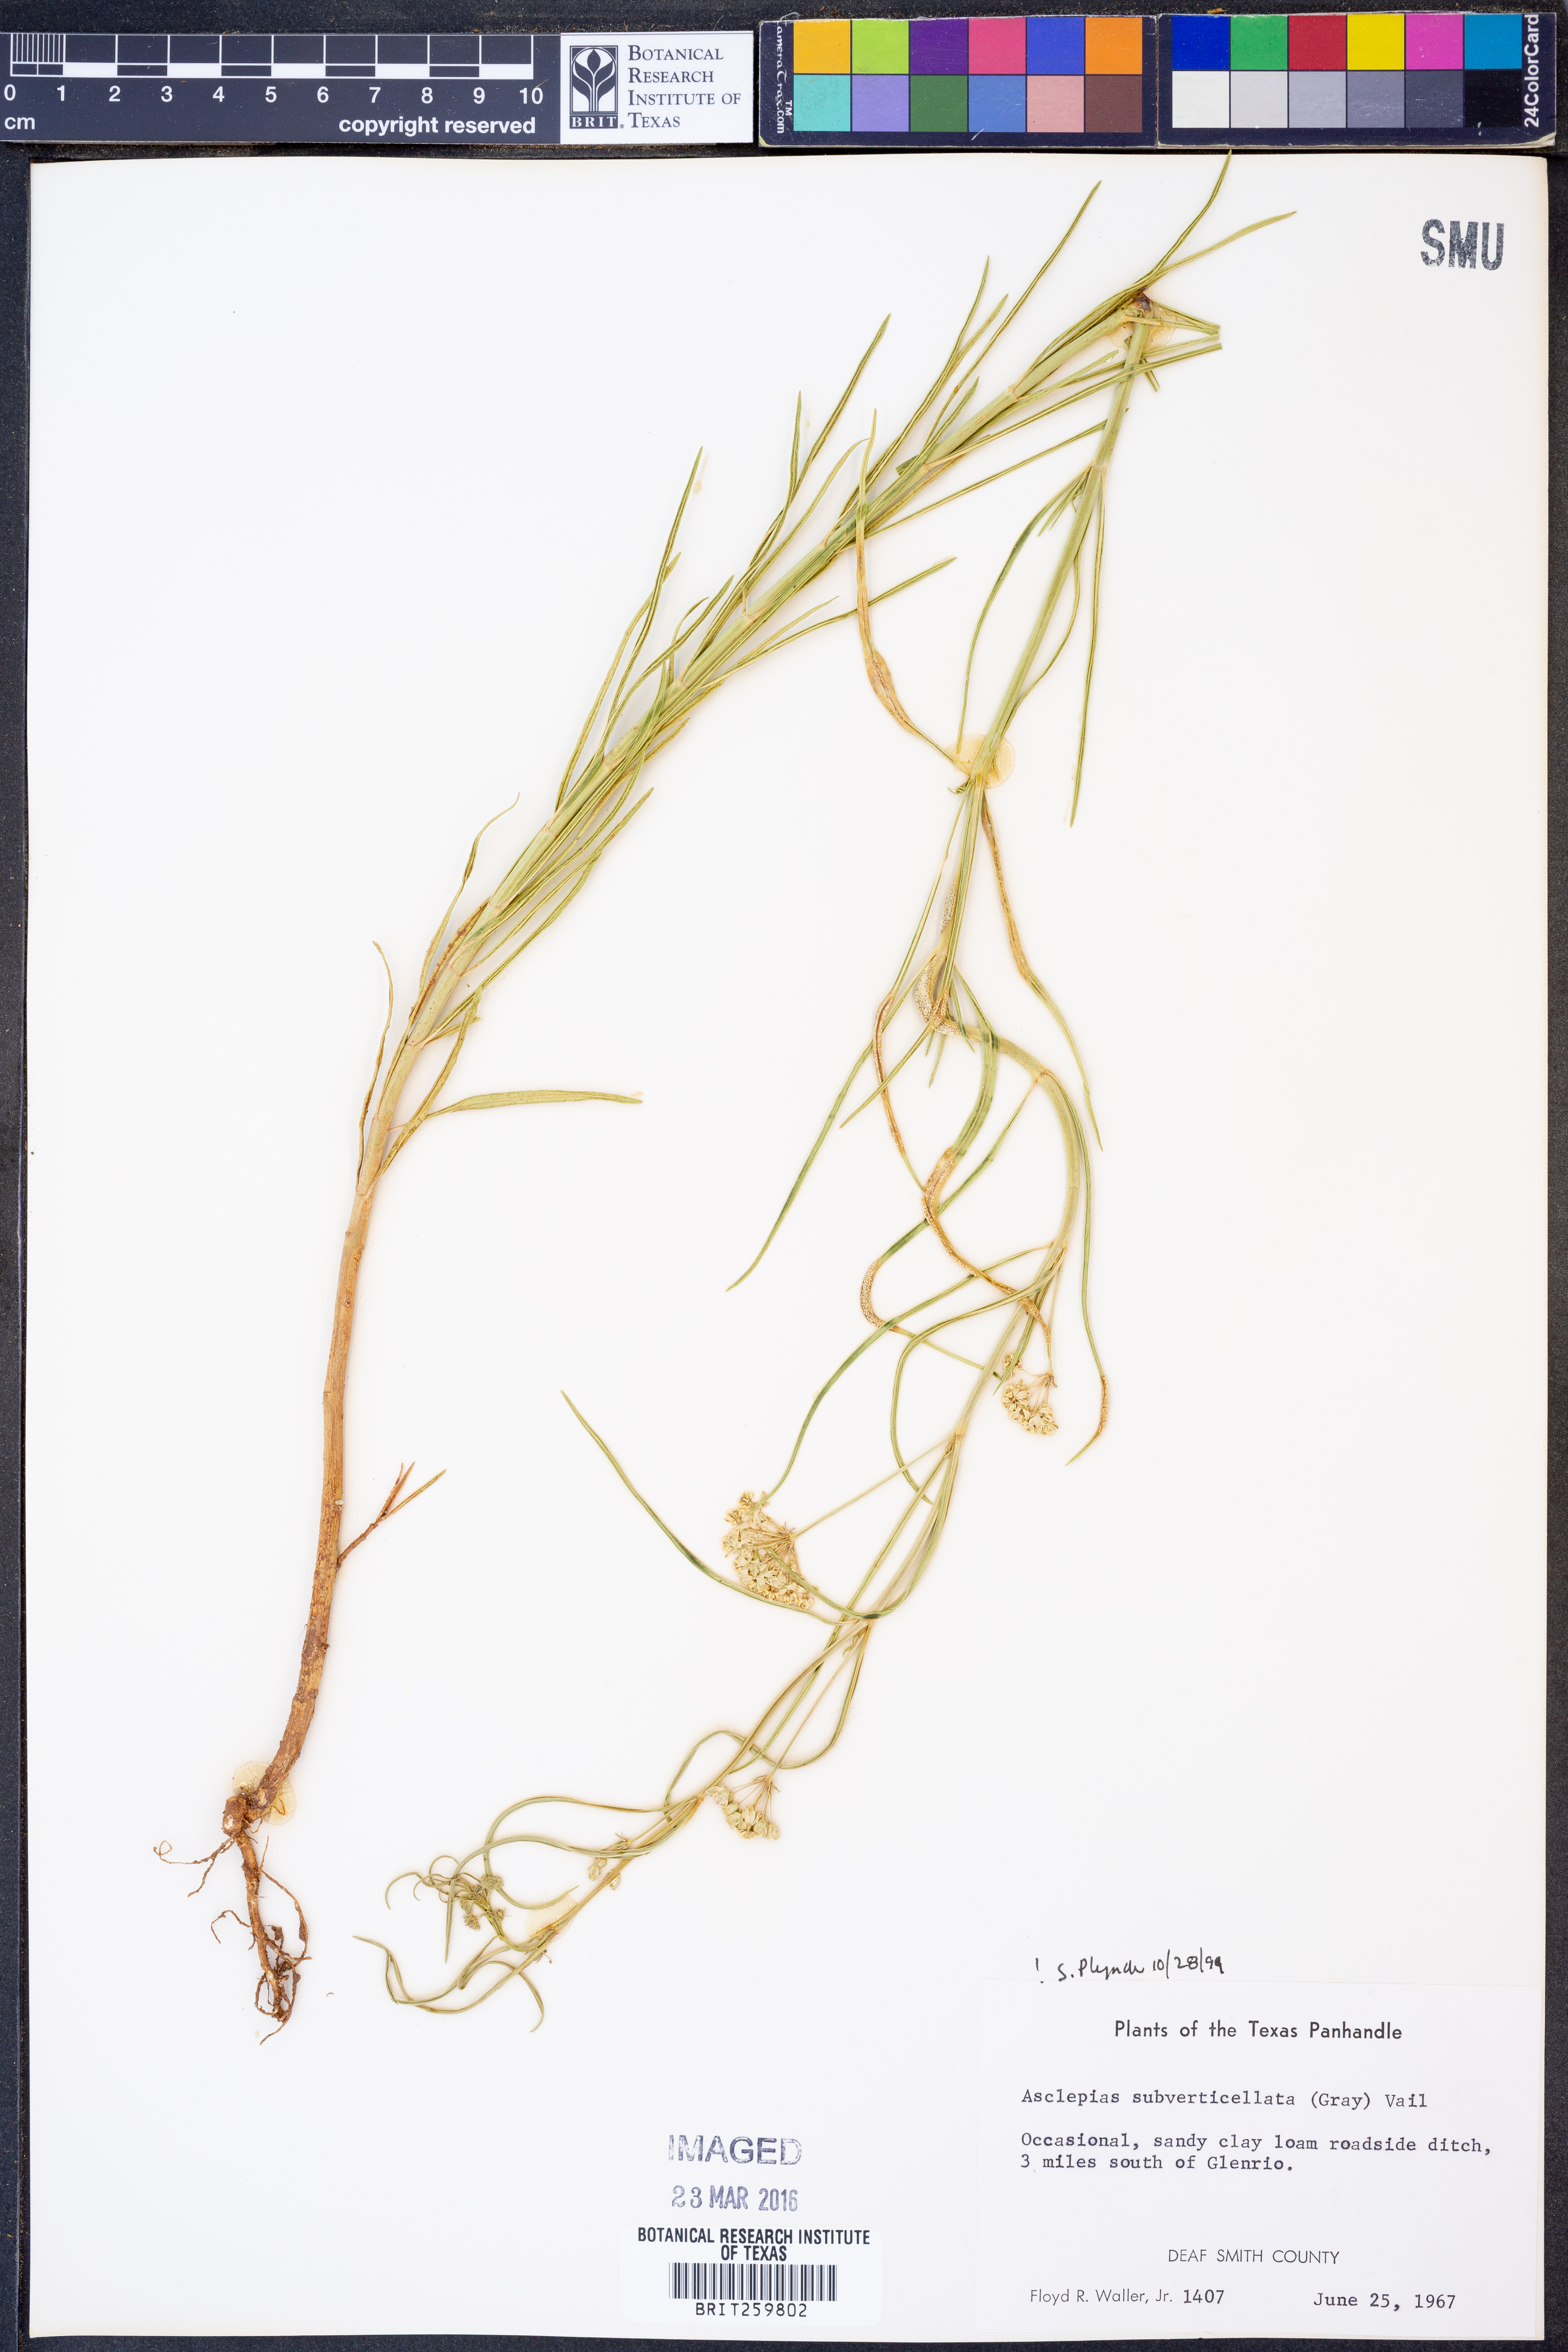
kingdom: Plantae
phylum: Tracheophyta
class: Magnoliopsida
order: Gentianales
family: Apocynaceae
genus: Asclepias
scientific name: Asclepias subverticillata
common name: Horsetail milkweed
